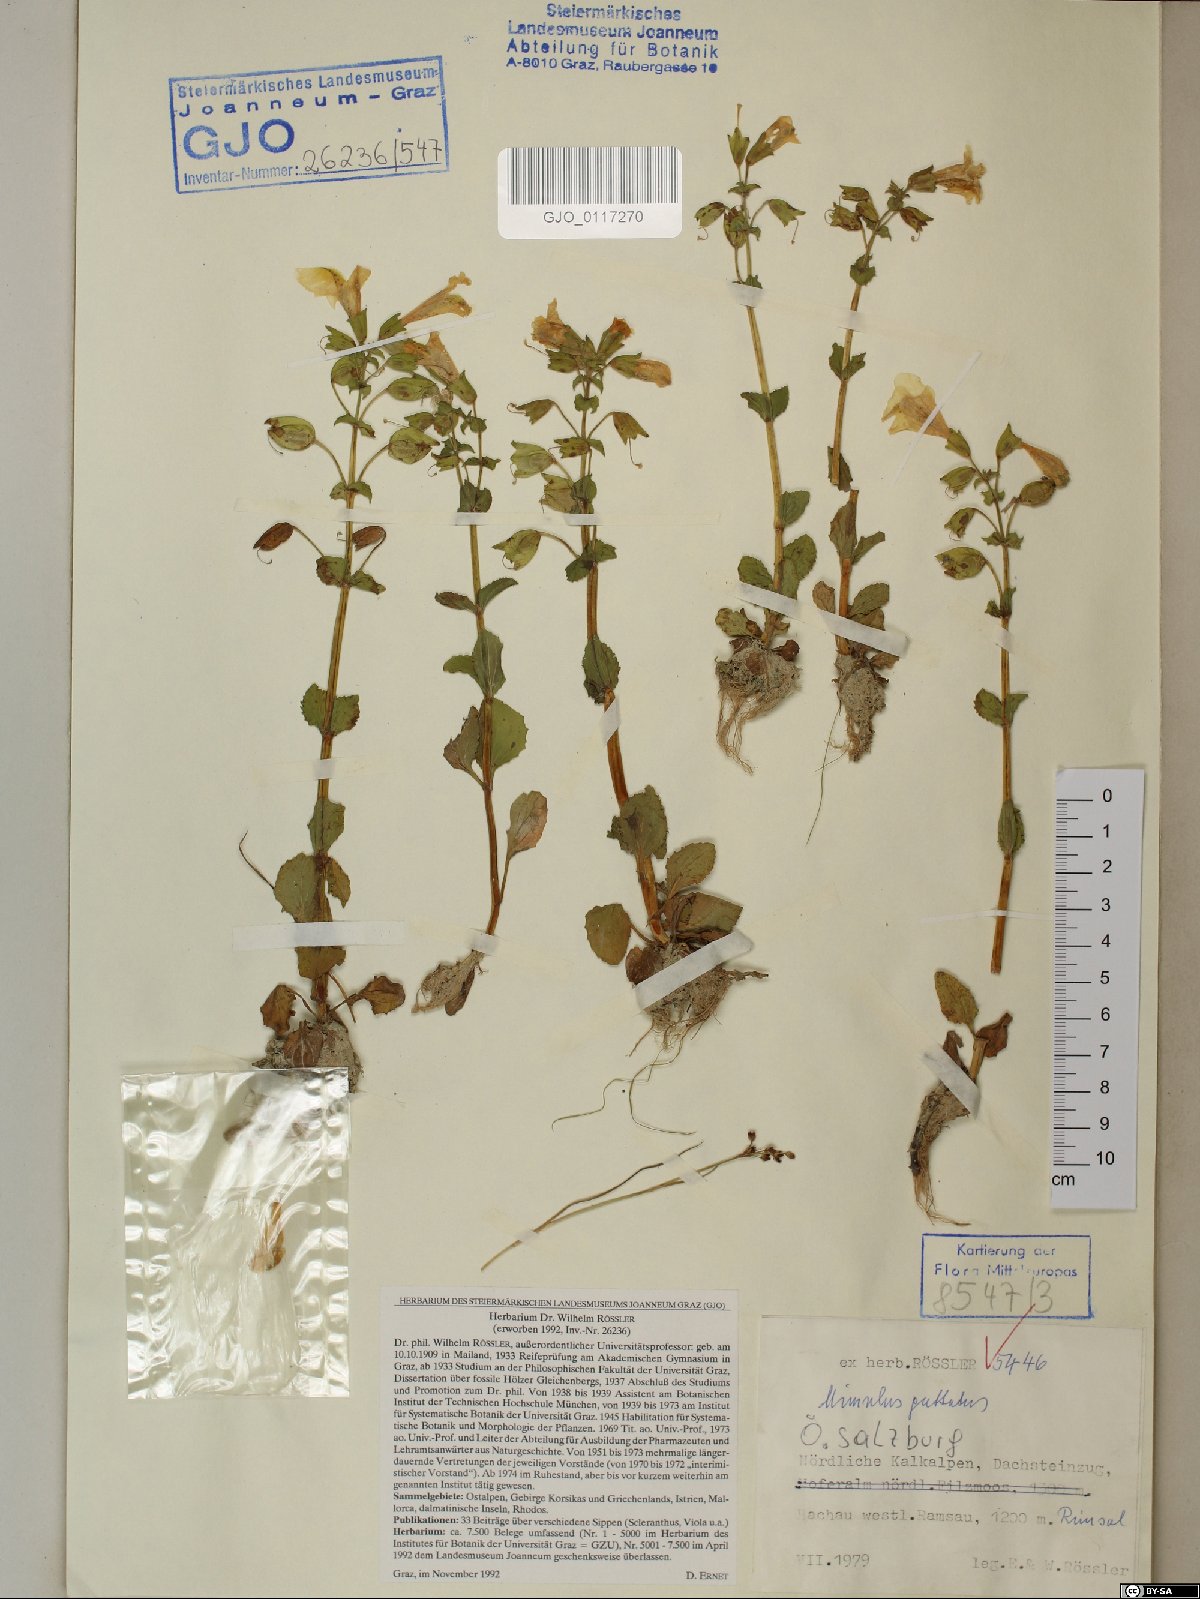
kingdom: Plantae
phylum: Tracheophyta
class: Magnoliopsida
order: Lamiales
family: Phrymaceae
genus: Erythranthe
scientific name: Erythranthe guttata
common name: Monkeyflower
